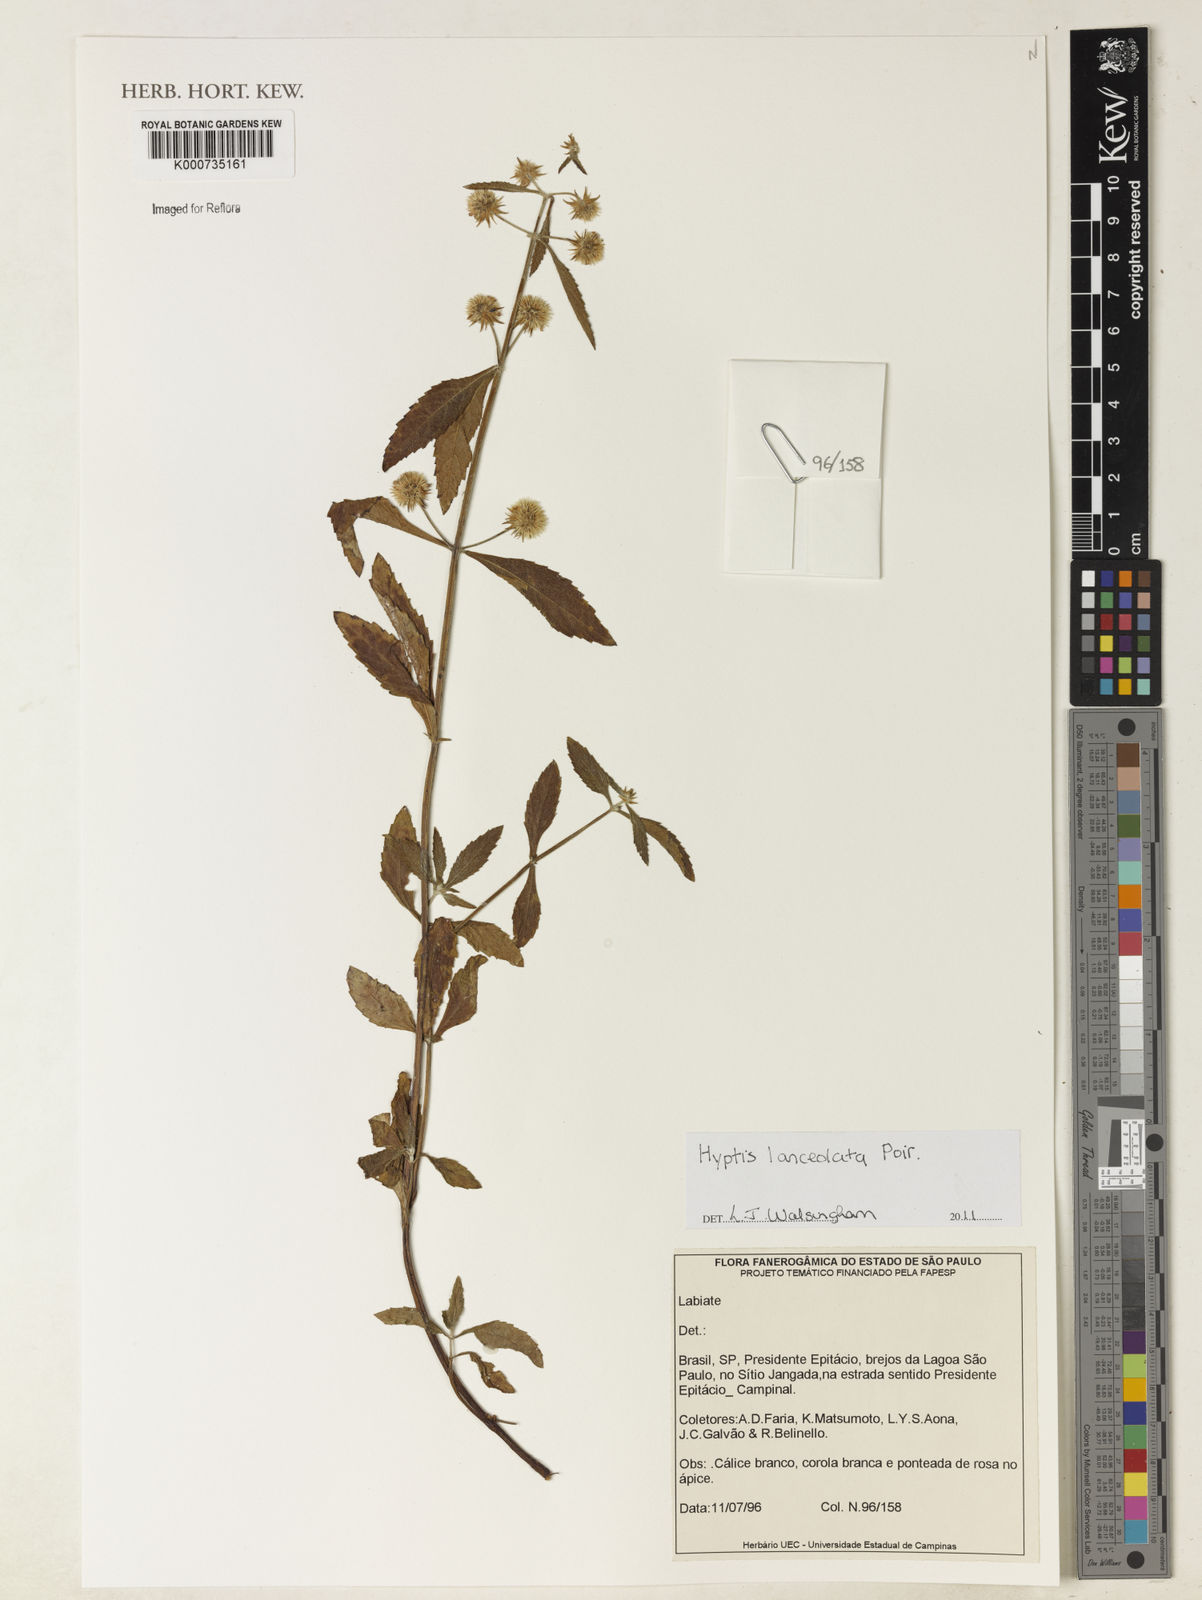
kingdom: Plantae
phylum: Tracheophyta
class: Magnoliopsida
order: Lamiales
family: Lamiaceae
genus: Hyptis
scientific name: Hyptis lanceolata
